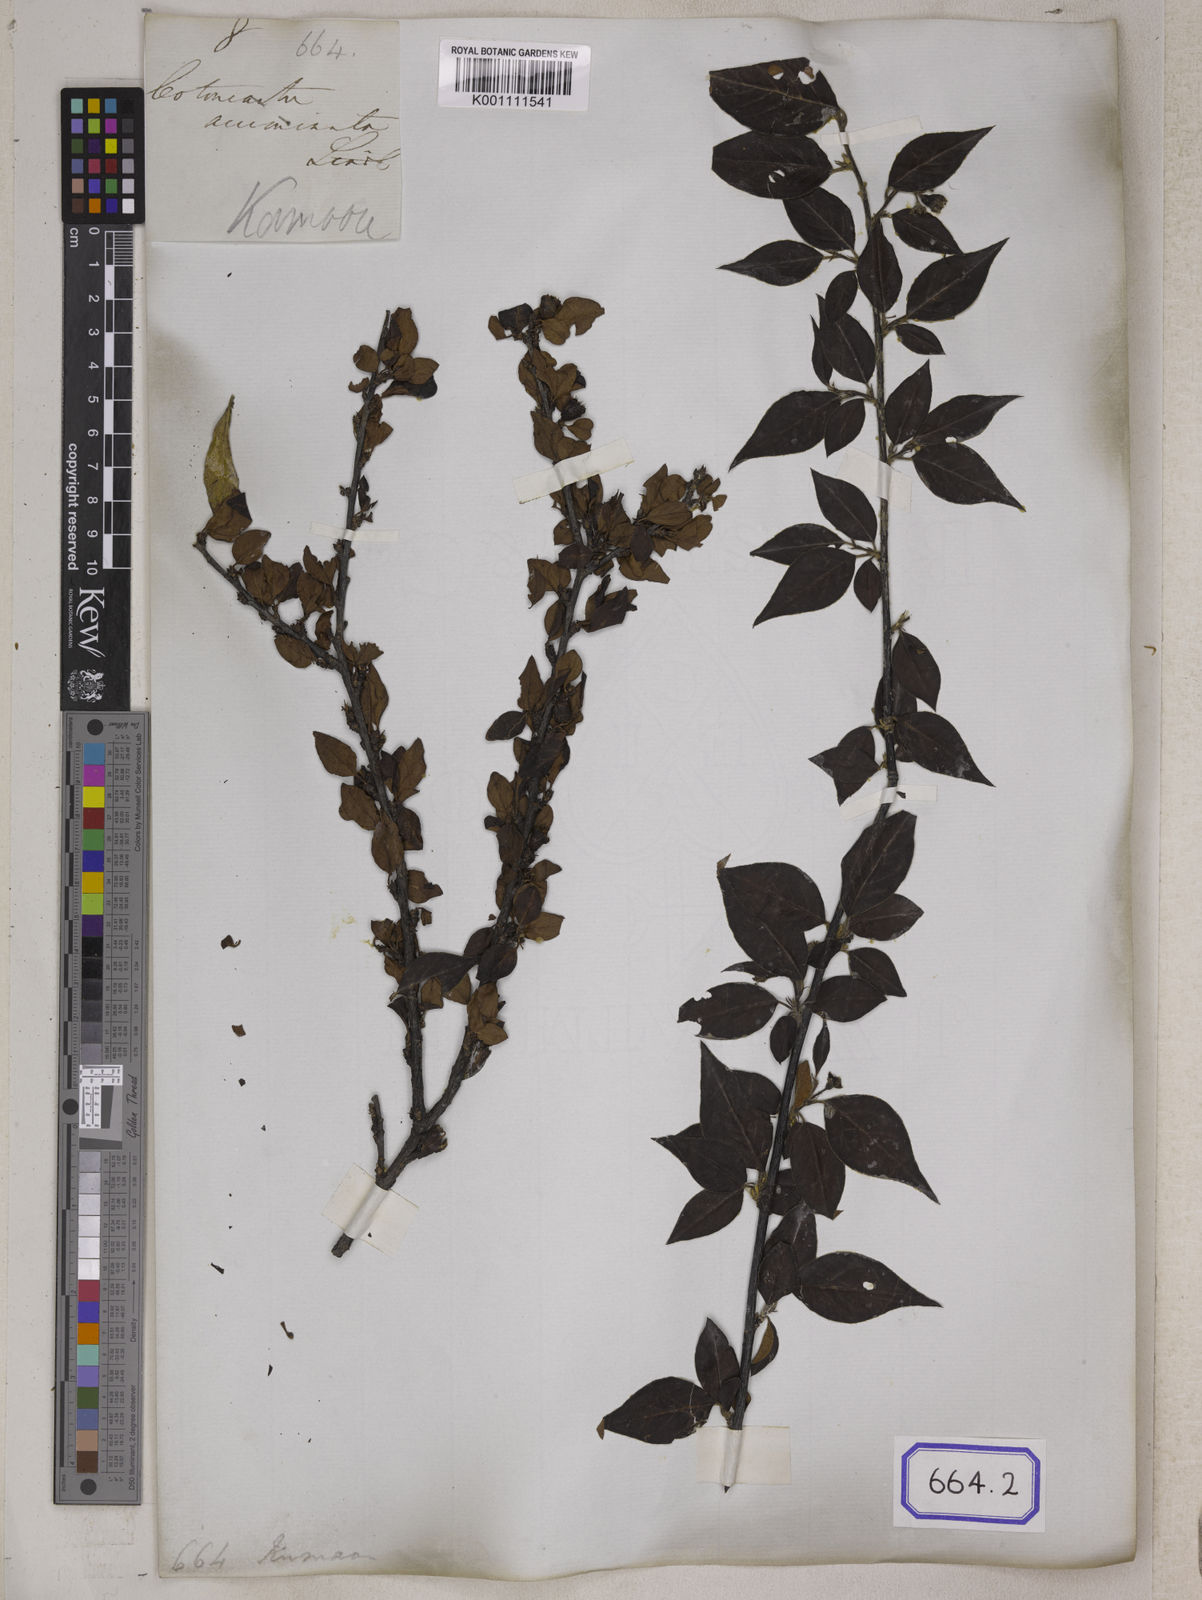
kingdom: Plantae
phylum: Tracheophyta
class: Magnoliopsida
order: Rosales
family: Rosaceae
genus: Cotoneaster
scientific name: Cotoneaster acuminatus
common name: Acuminate cotoneaster
